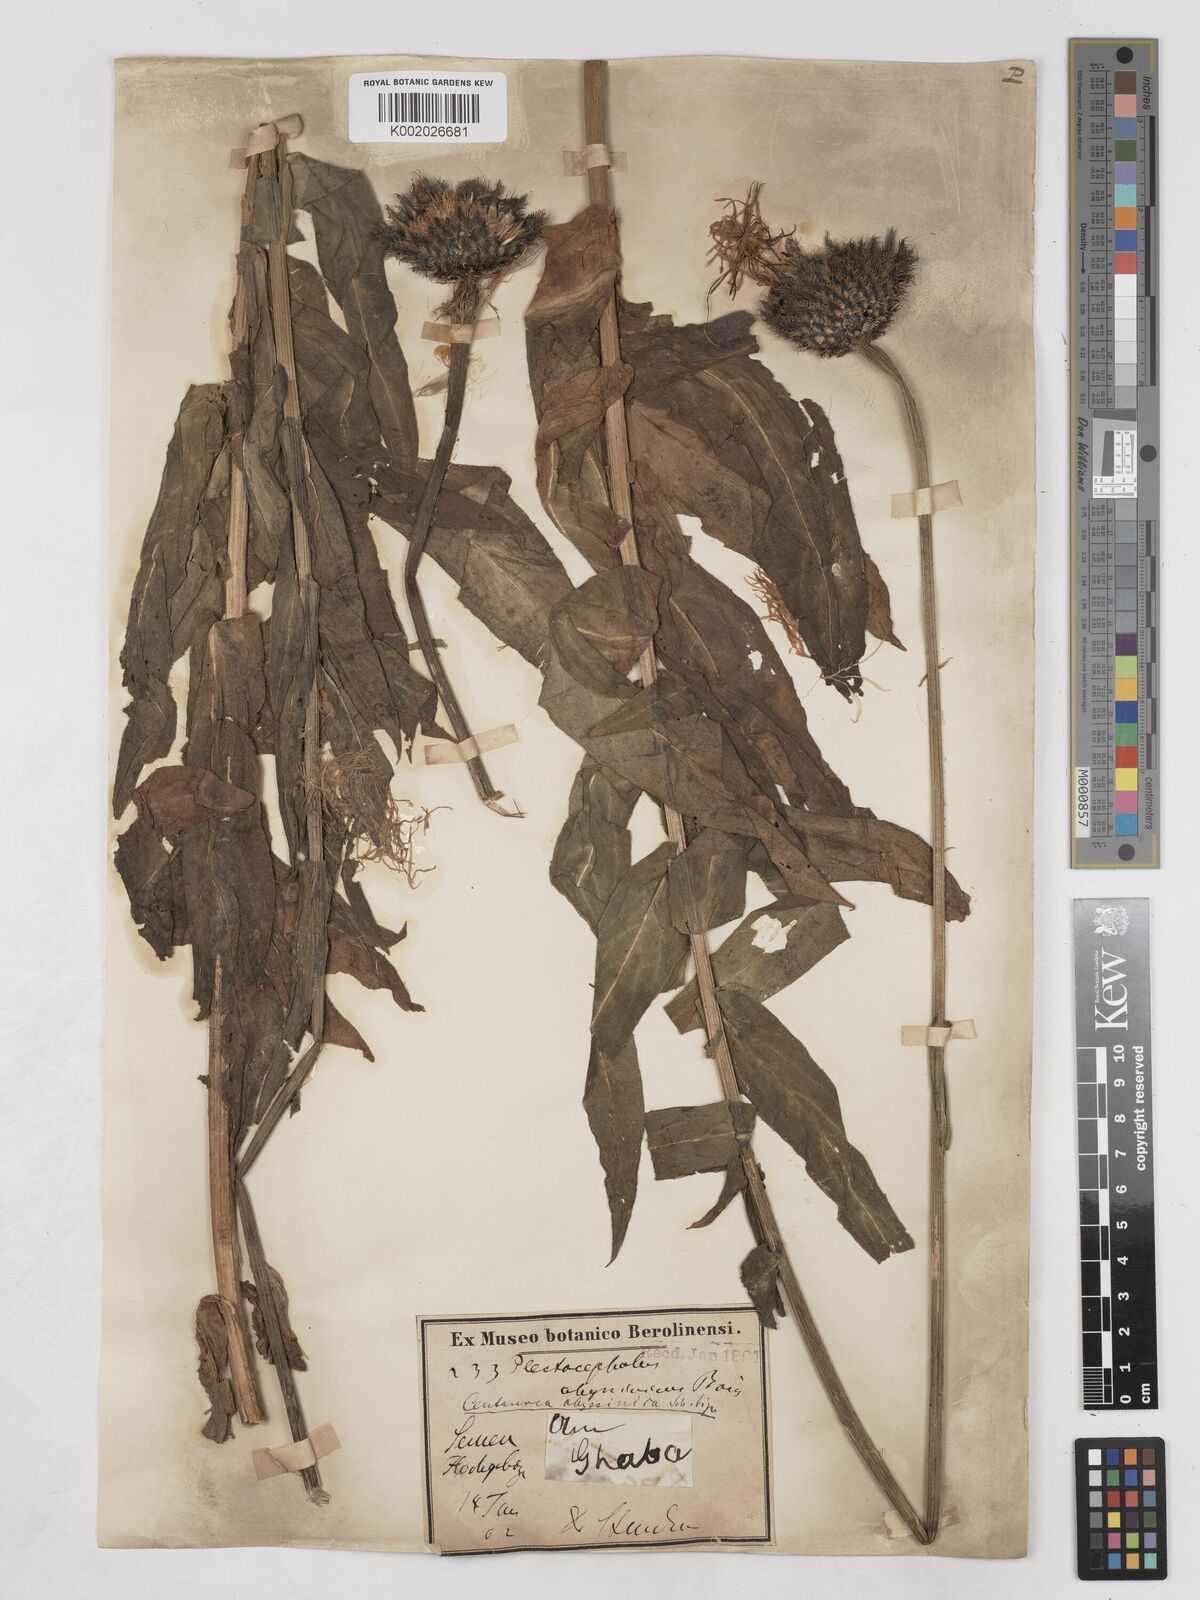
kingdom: Plantae
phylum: Tracheophyta
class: Magnoliopsida
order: Asterales
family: Asteraceae
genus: Plectocephalus
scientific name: Plectocephalus varians
